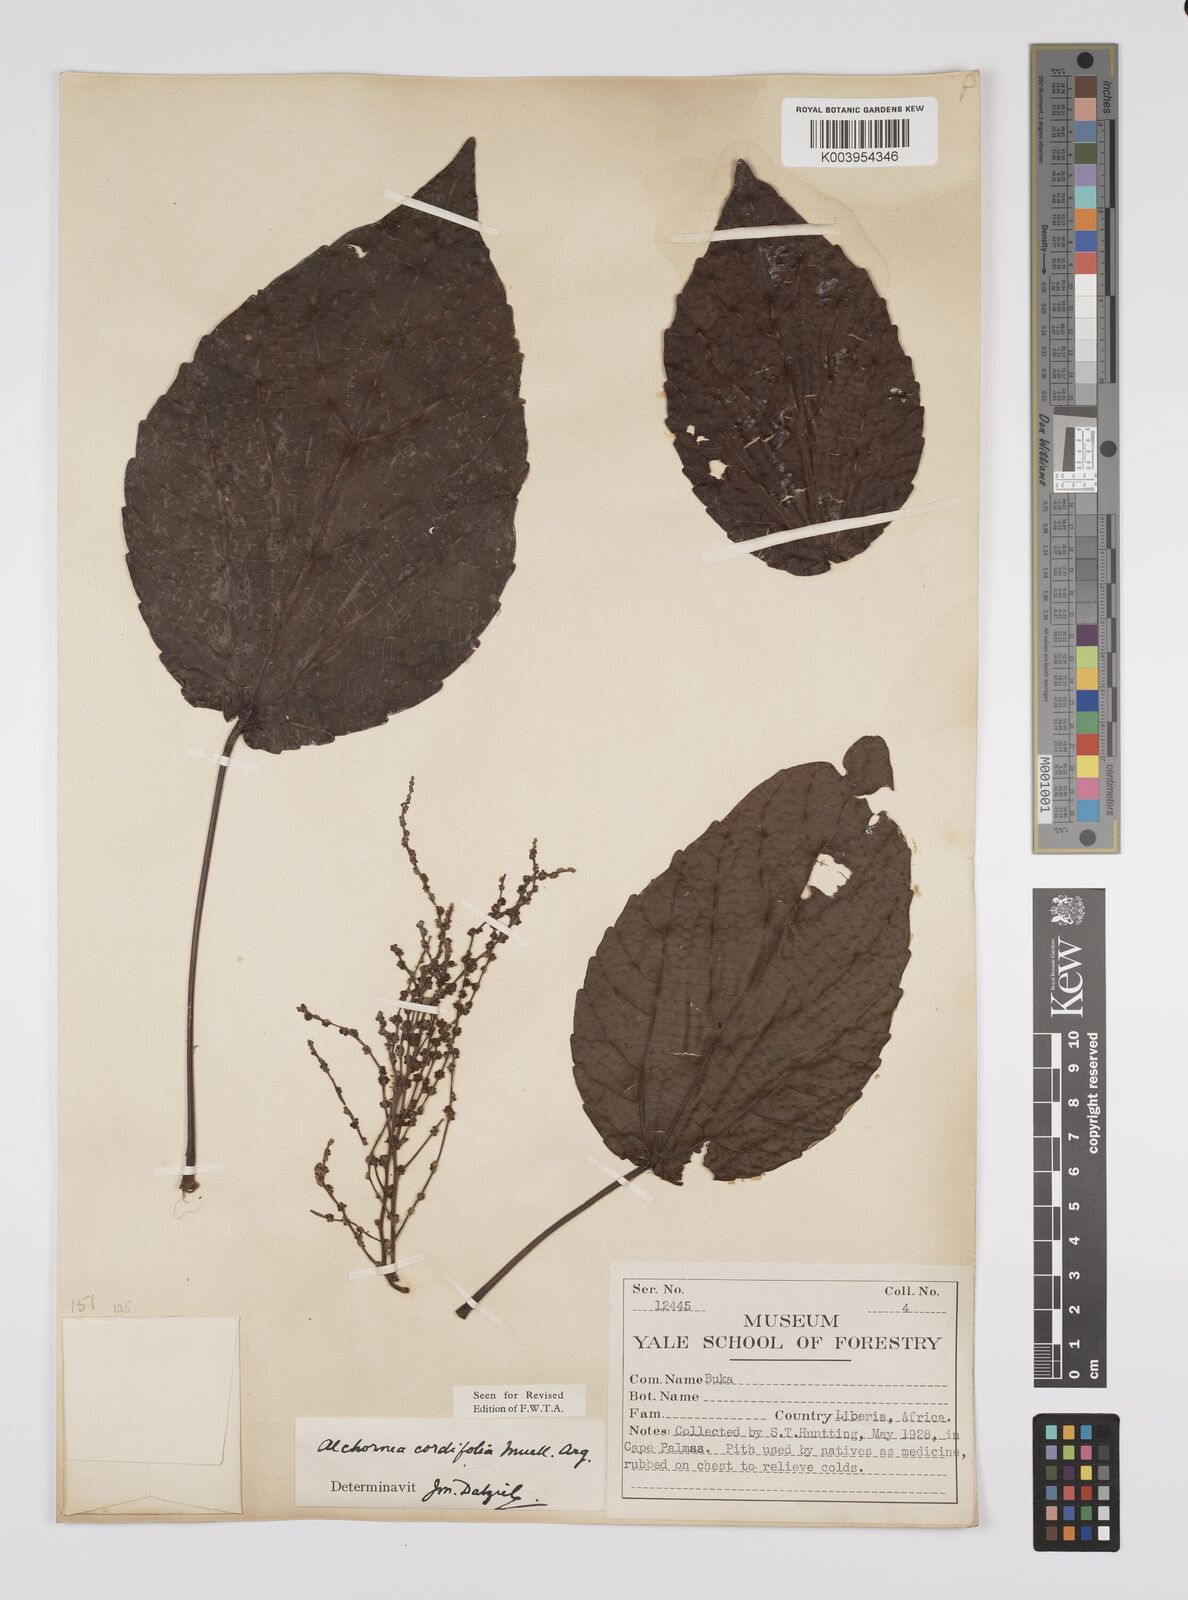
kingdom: Plantae
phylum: Tracheophyta
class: Magnoliopsida
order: Malpighiales
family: Euphorbiaceae
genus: Alchornea
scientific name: Alchornea cordifolia
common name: Christmasbush
